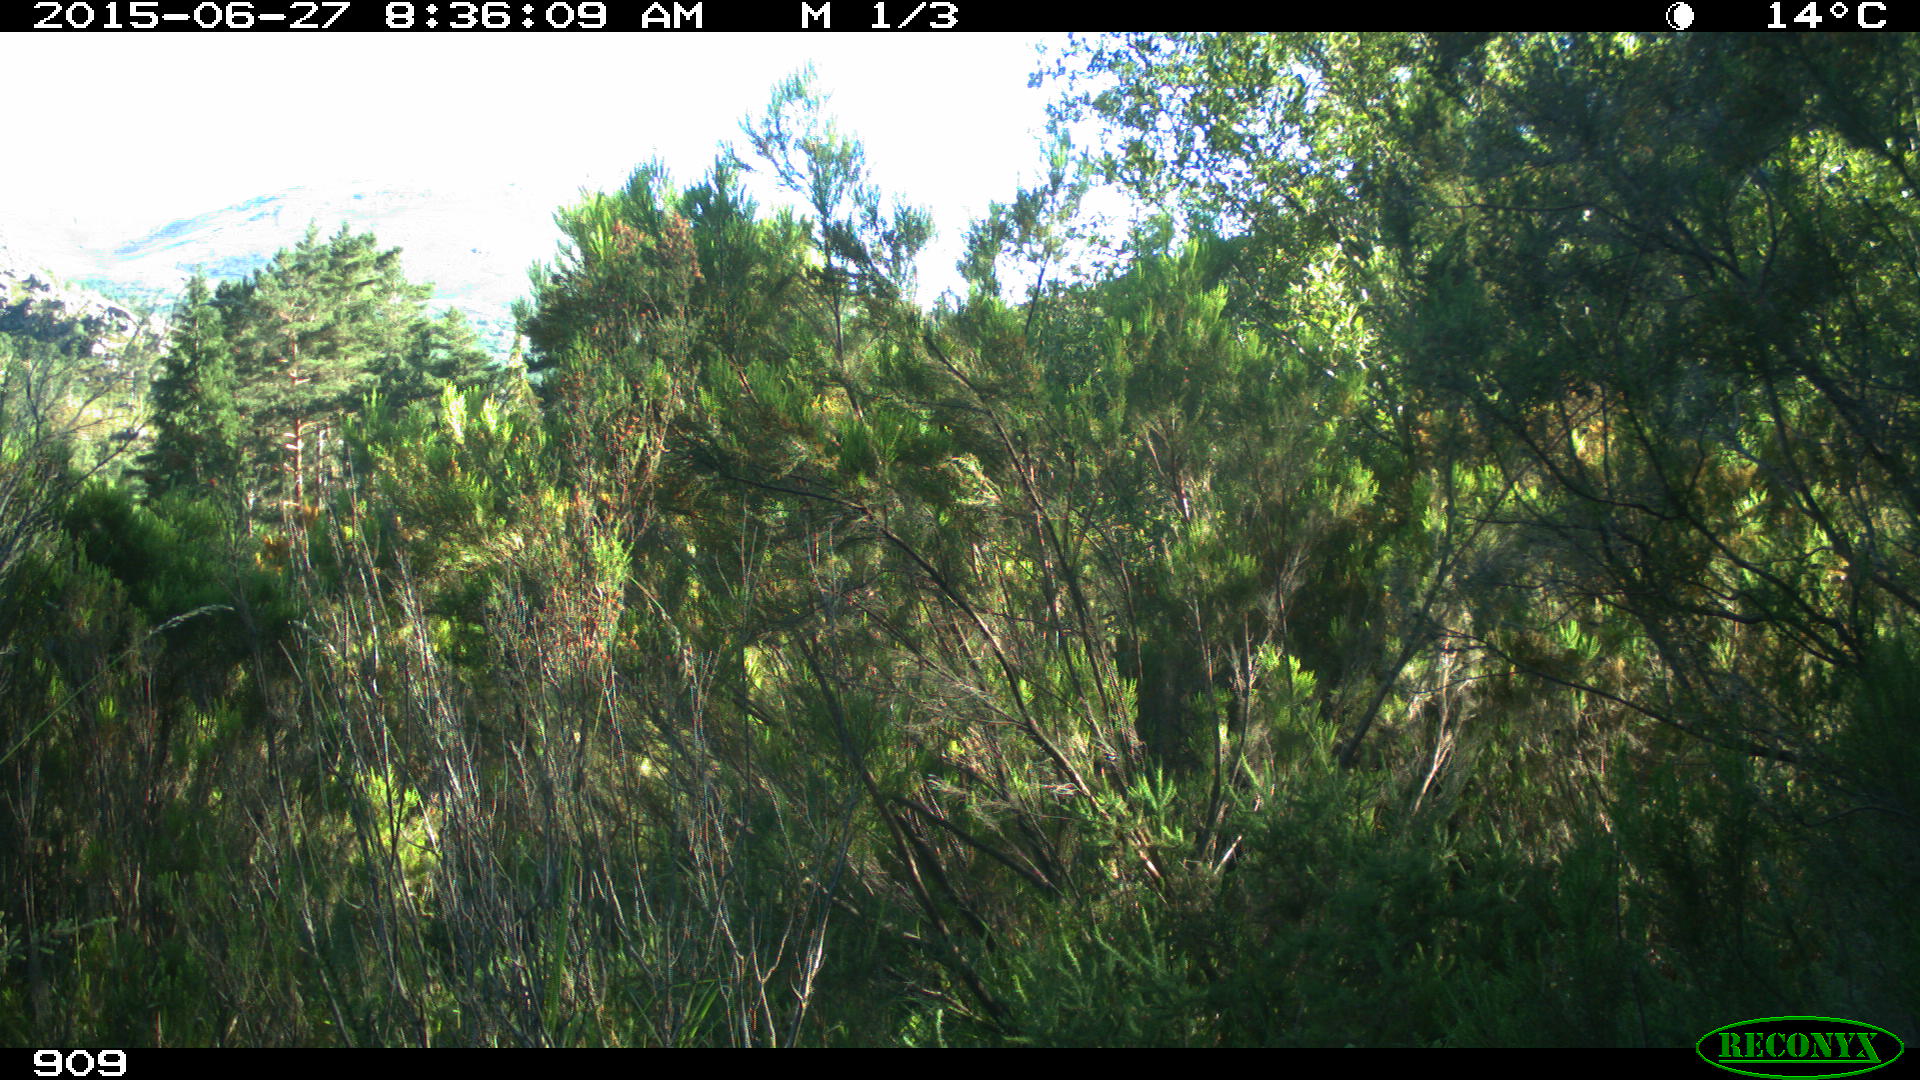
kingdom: Animalia
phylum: Chordata
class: Mammalia
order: Artiodactyla
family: Bovidae
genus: Bos
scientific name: Bos taurus
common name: Domesticated cattle
